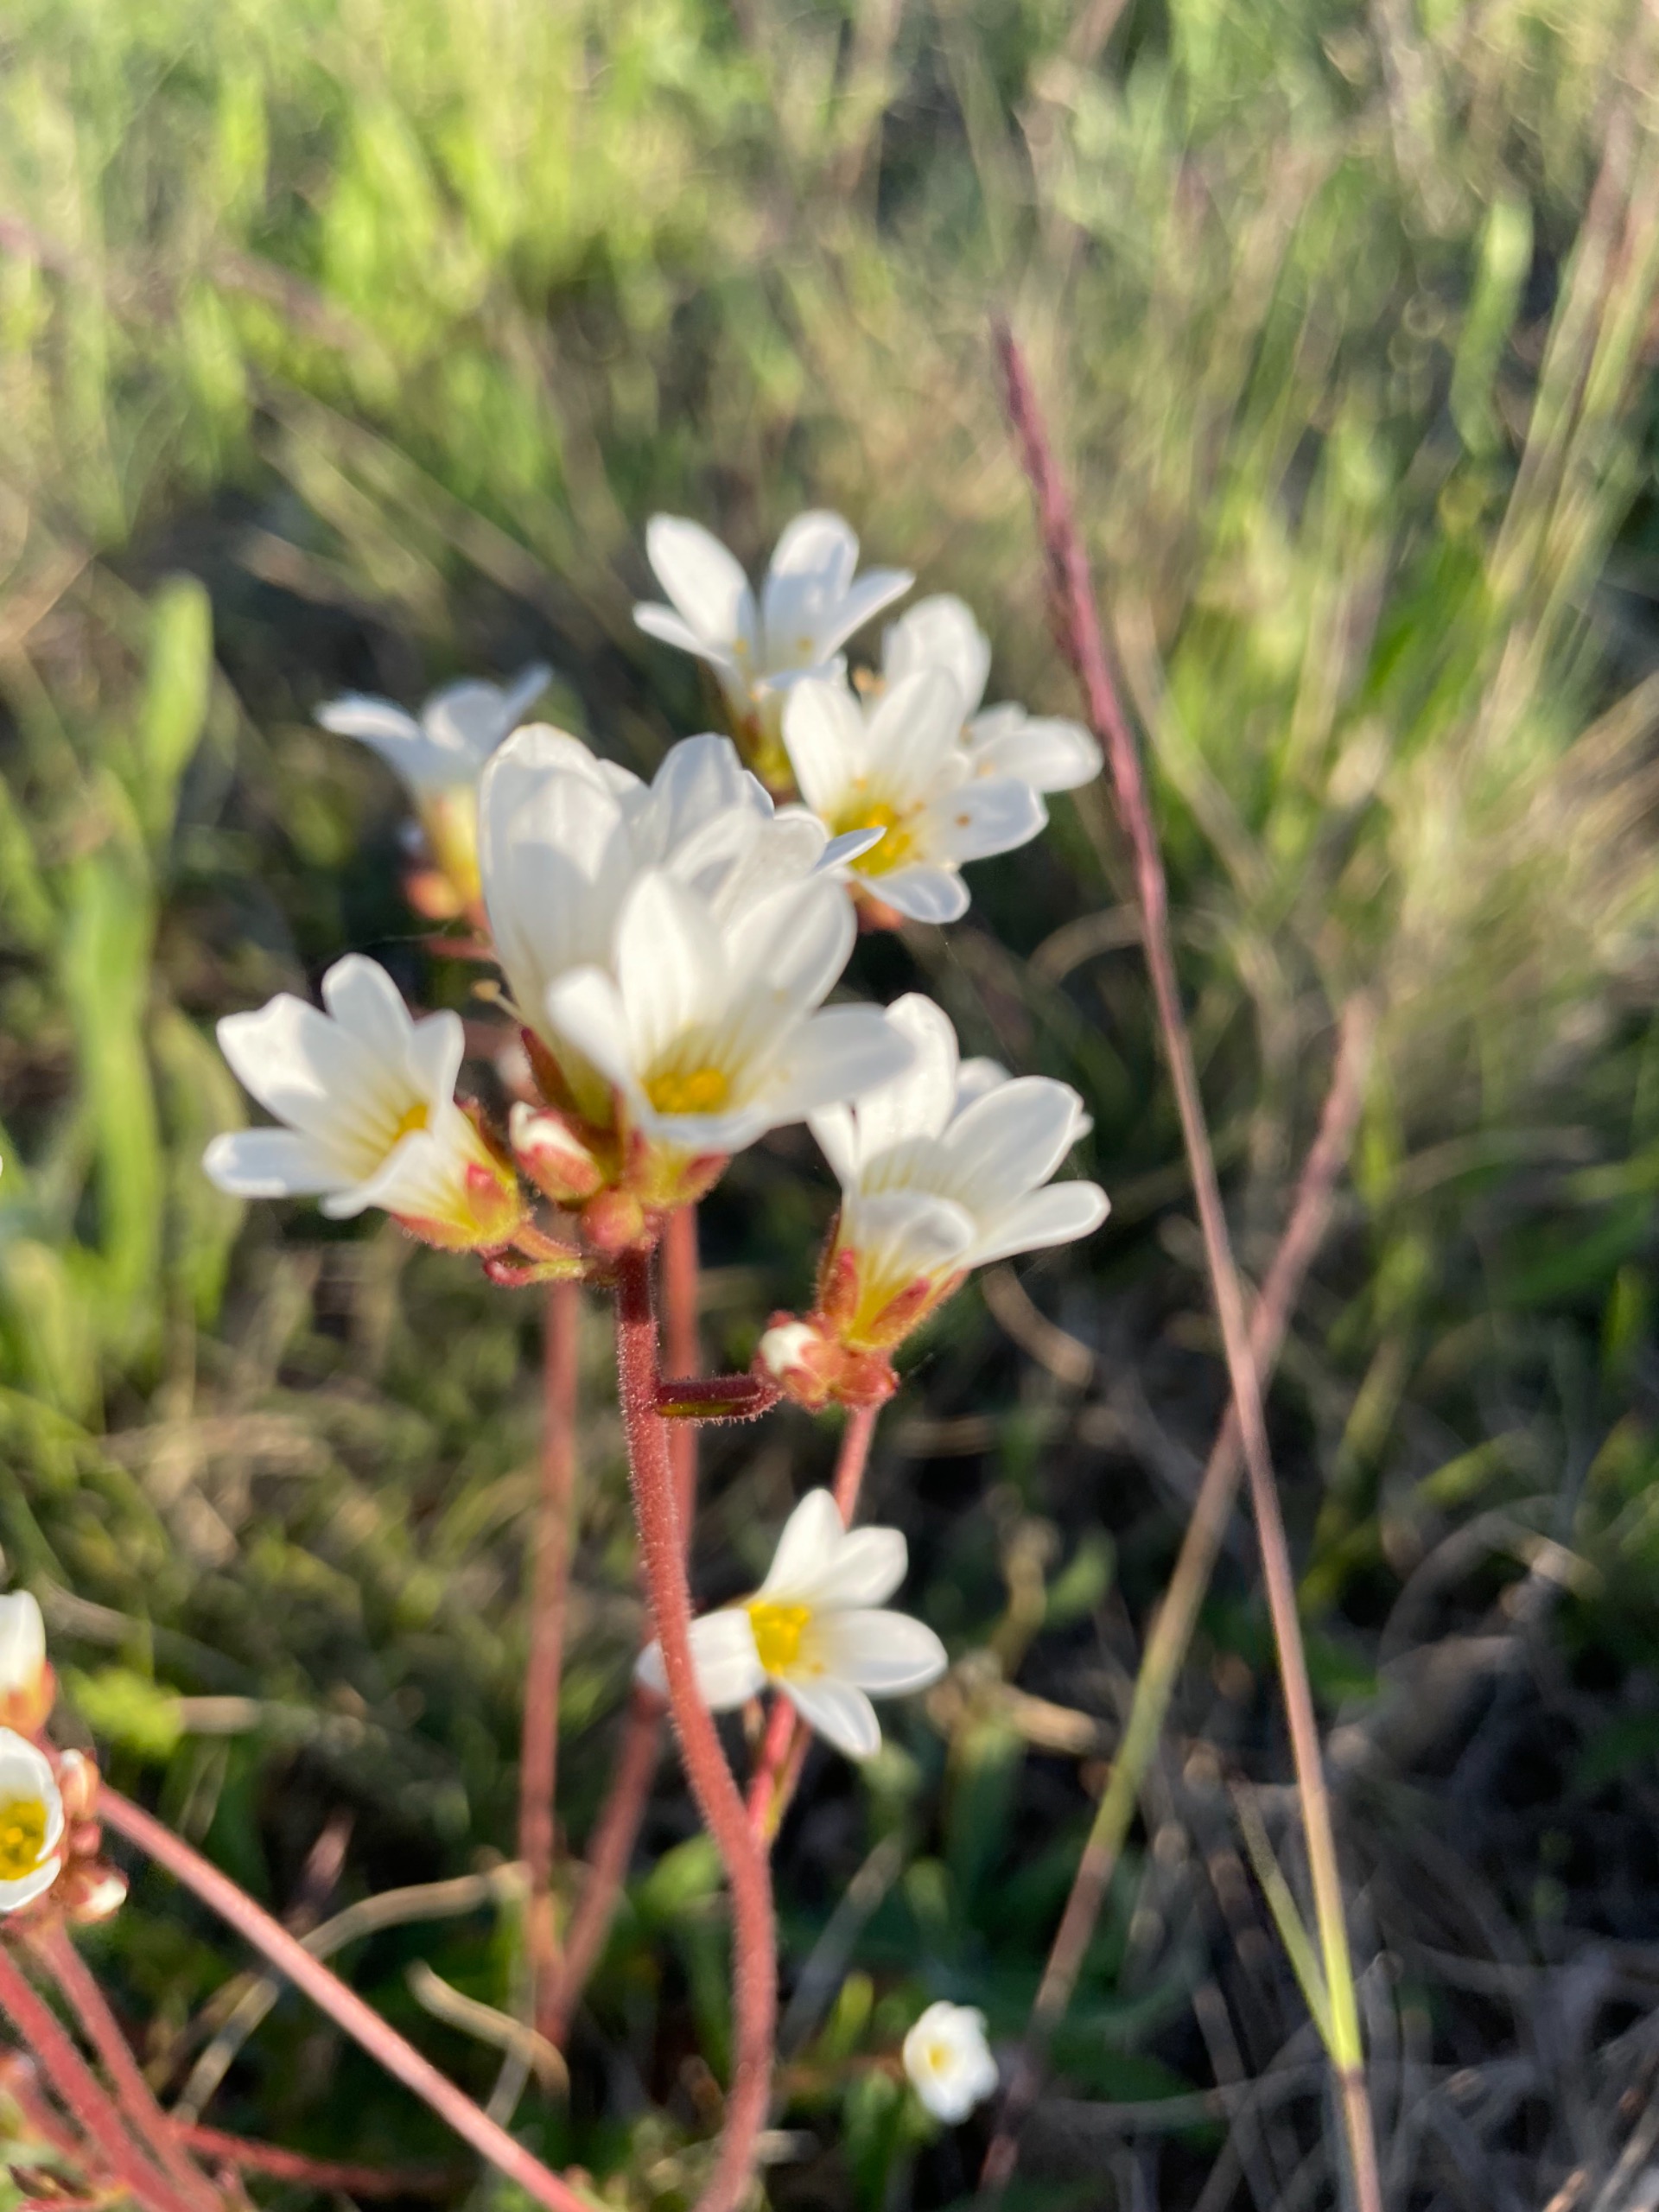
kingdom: Plantae
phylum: Tracheophyta
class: Magnoliopsida
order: Saxifragales
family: Saxifragaceae
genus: Saxifraga
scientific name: Saxifraga granulata
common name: Kornet stenbræk
